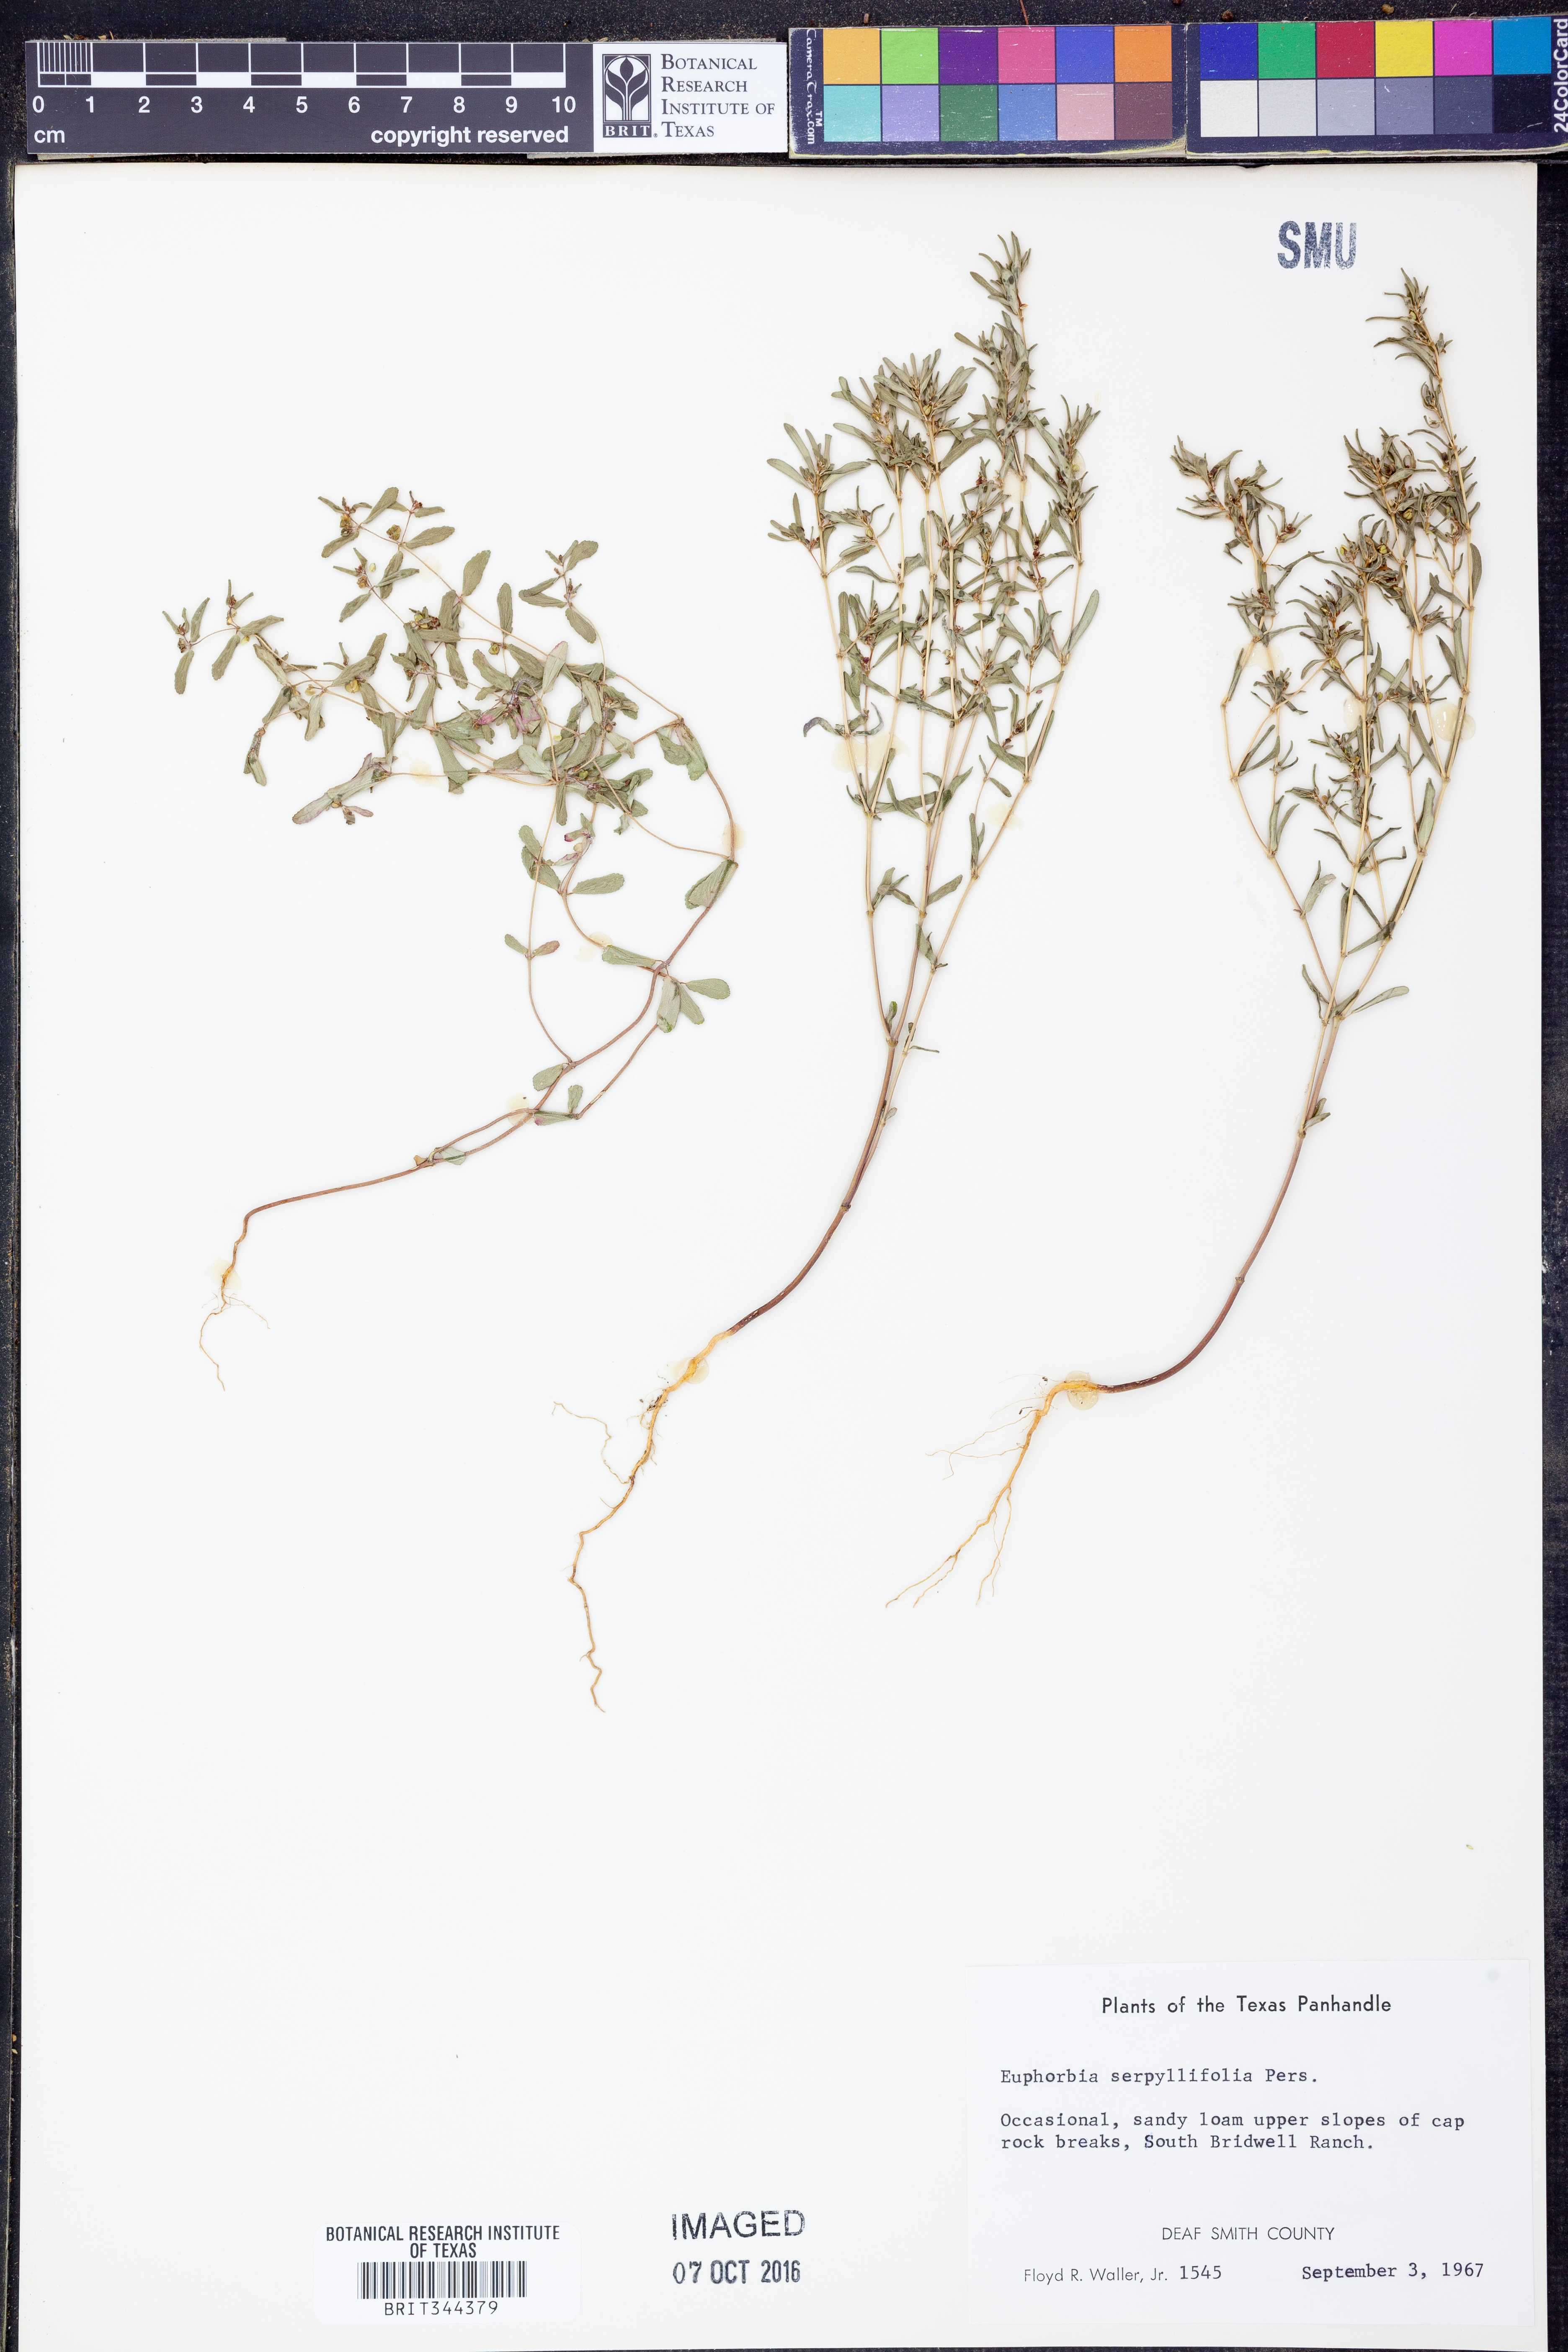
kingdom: Plantae
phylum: Tracheophyta
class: Magnoliopsida
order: Malpighiales
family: Euphorbiaceae
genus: Euphorbia
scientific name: Euphorbia serpillifolia
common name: Thyme-leaf spurge
